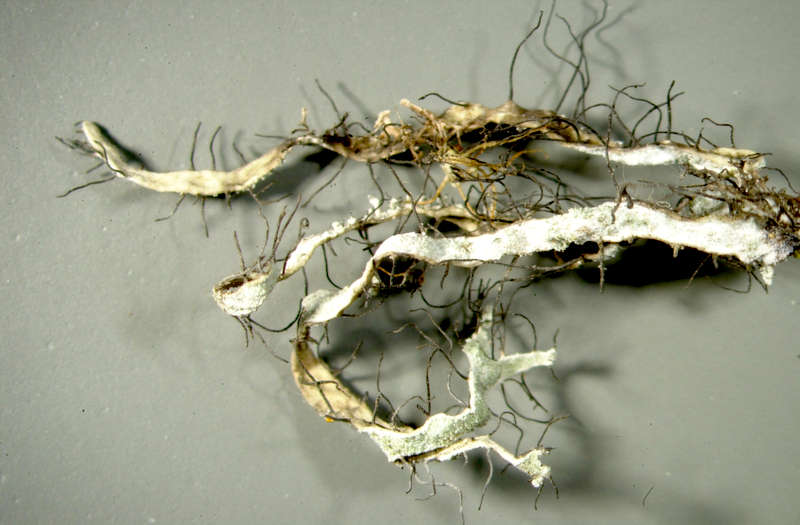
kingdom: Fungi
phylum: Ascomycota
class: Lecanoromycetes
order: Teloschistales
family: Teloschistaceae
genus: Teloschistes
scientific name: Teloschistes
